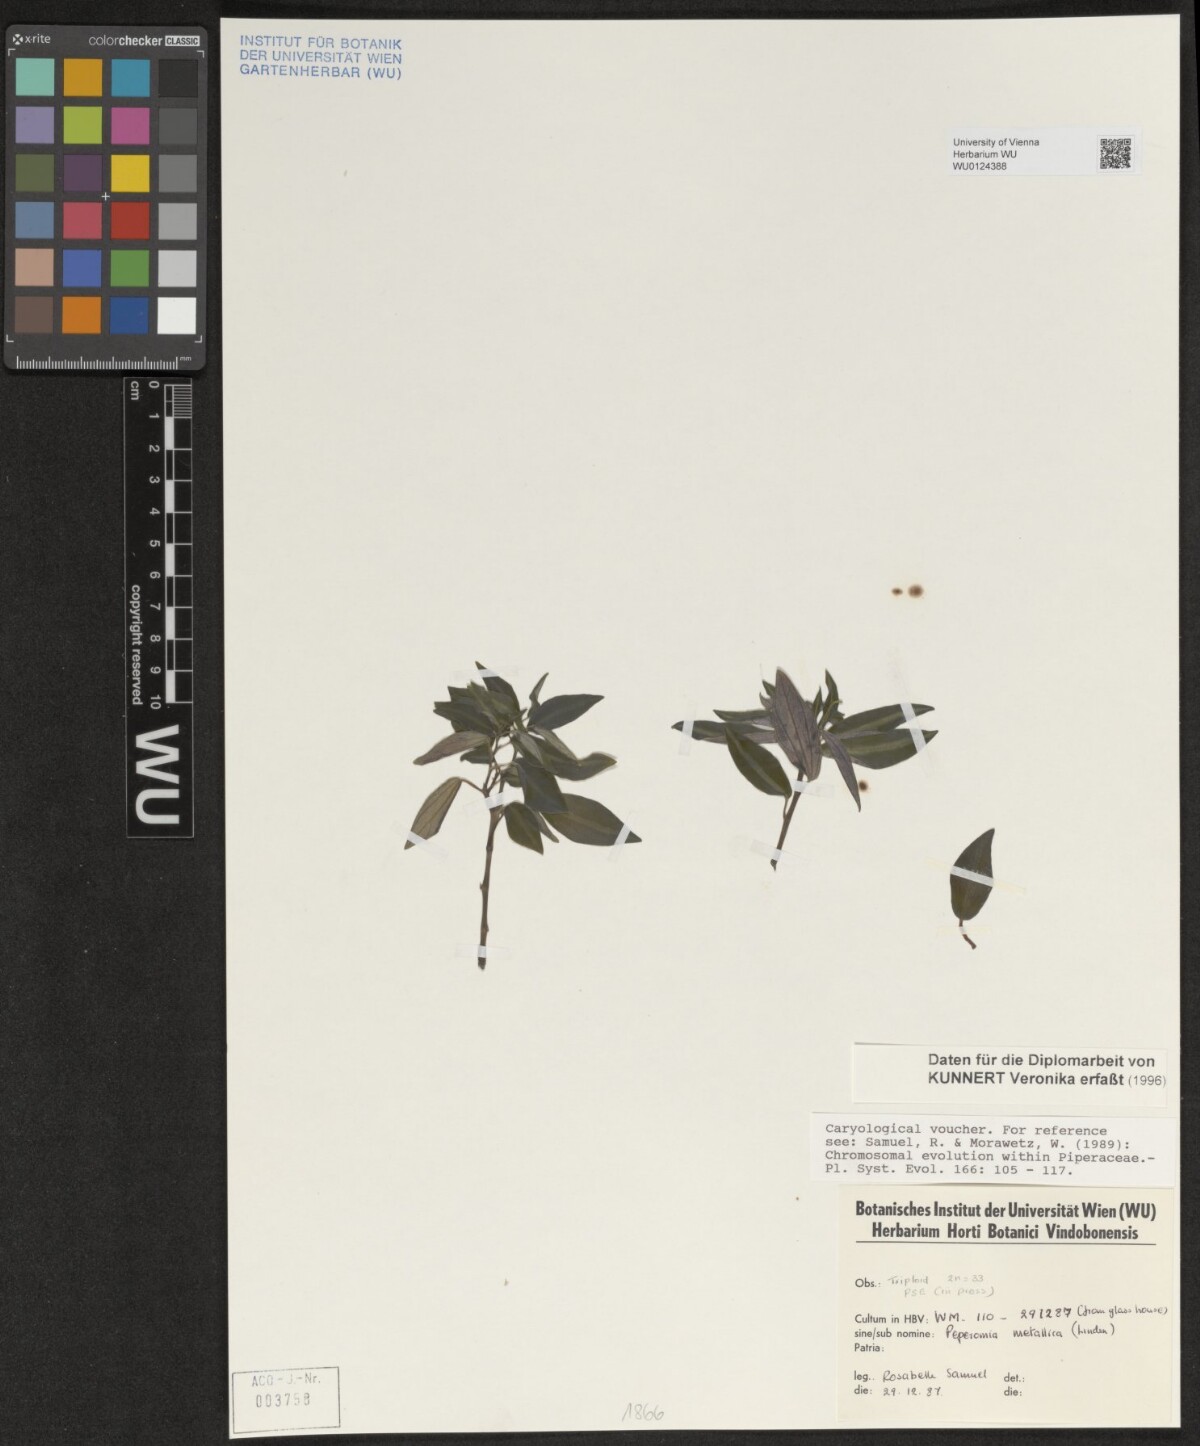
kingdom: Plantae
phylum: Tracheophyta
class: Magnoliopsida
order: Piperales
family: Piperaceae
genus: Peperomia
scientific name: Peperomia metallica
